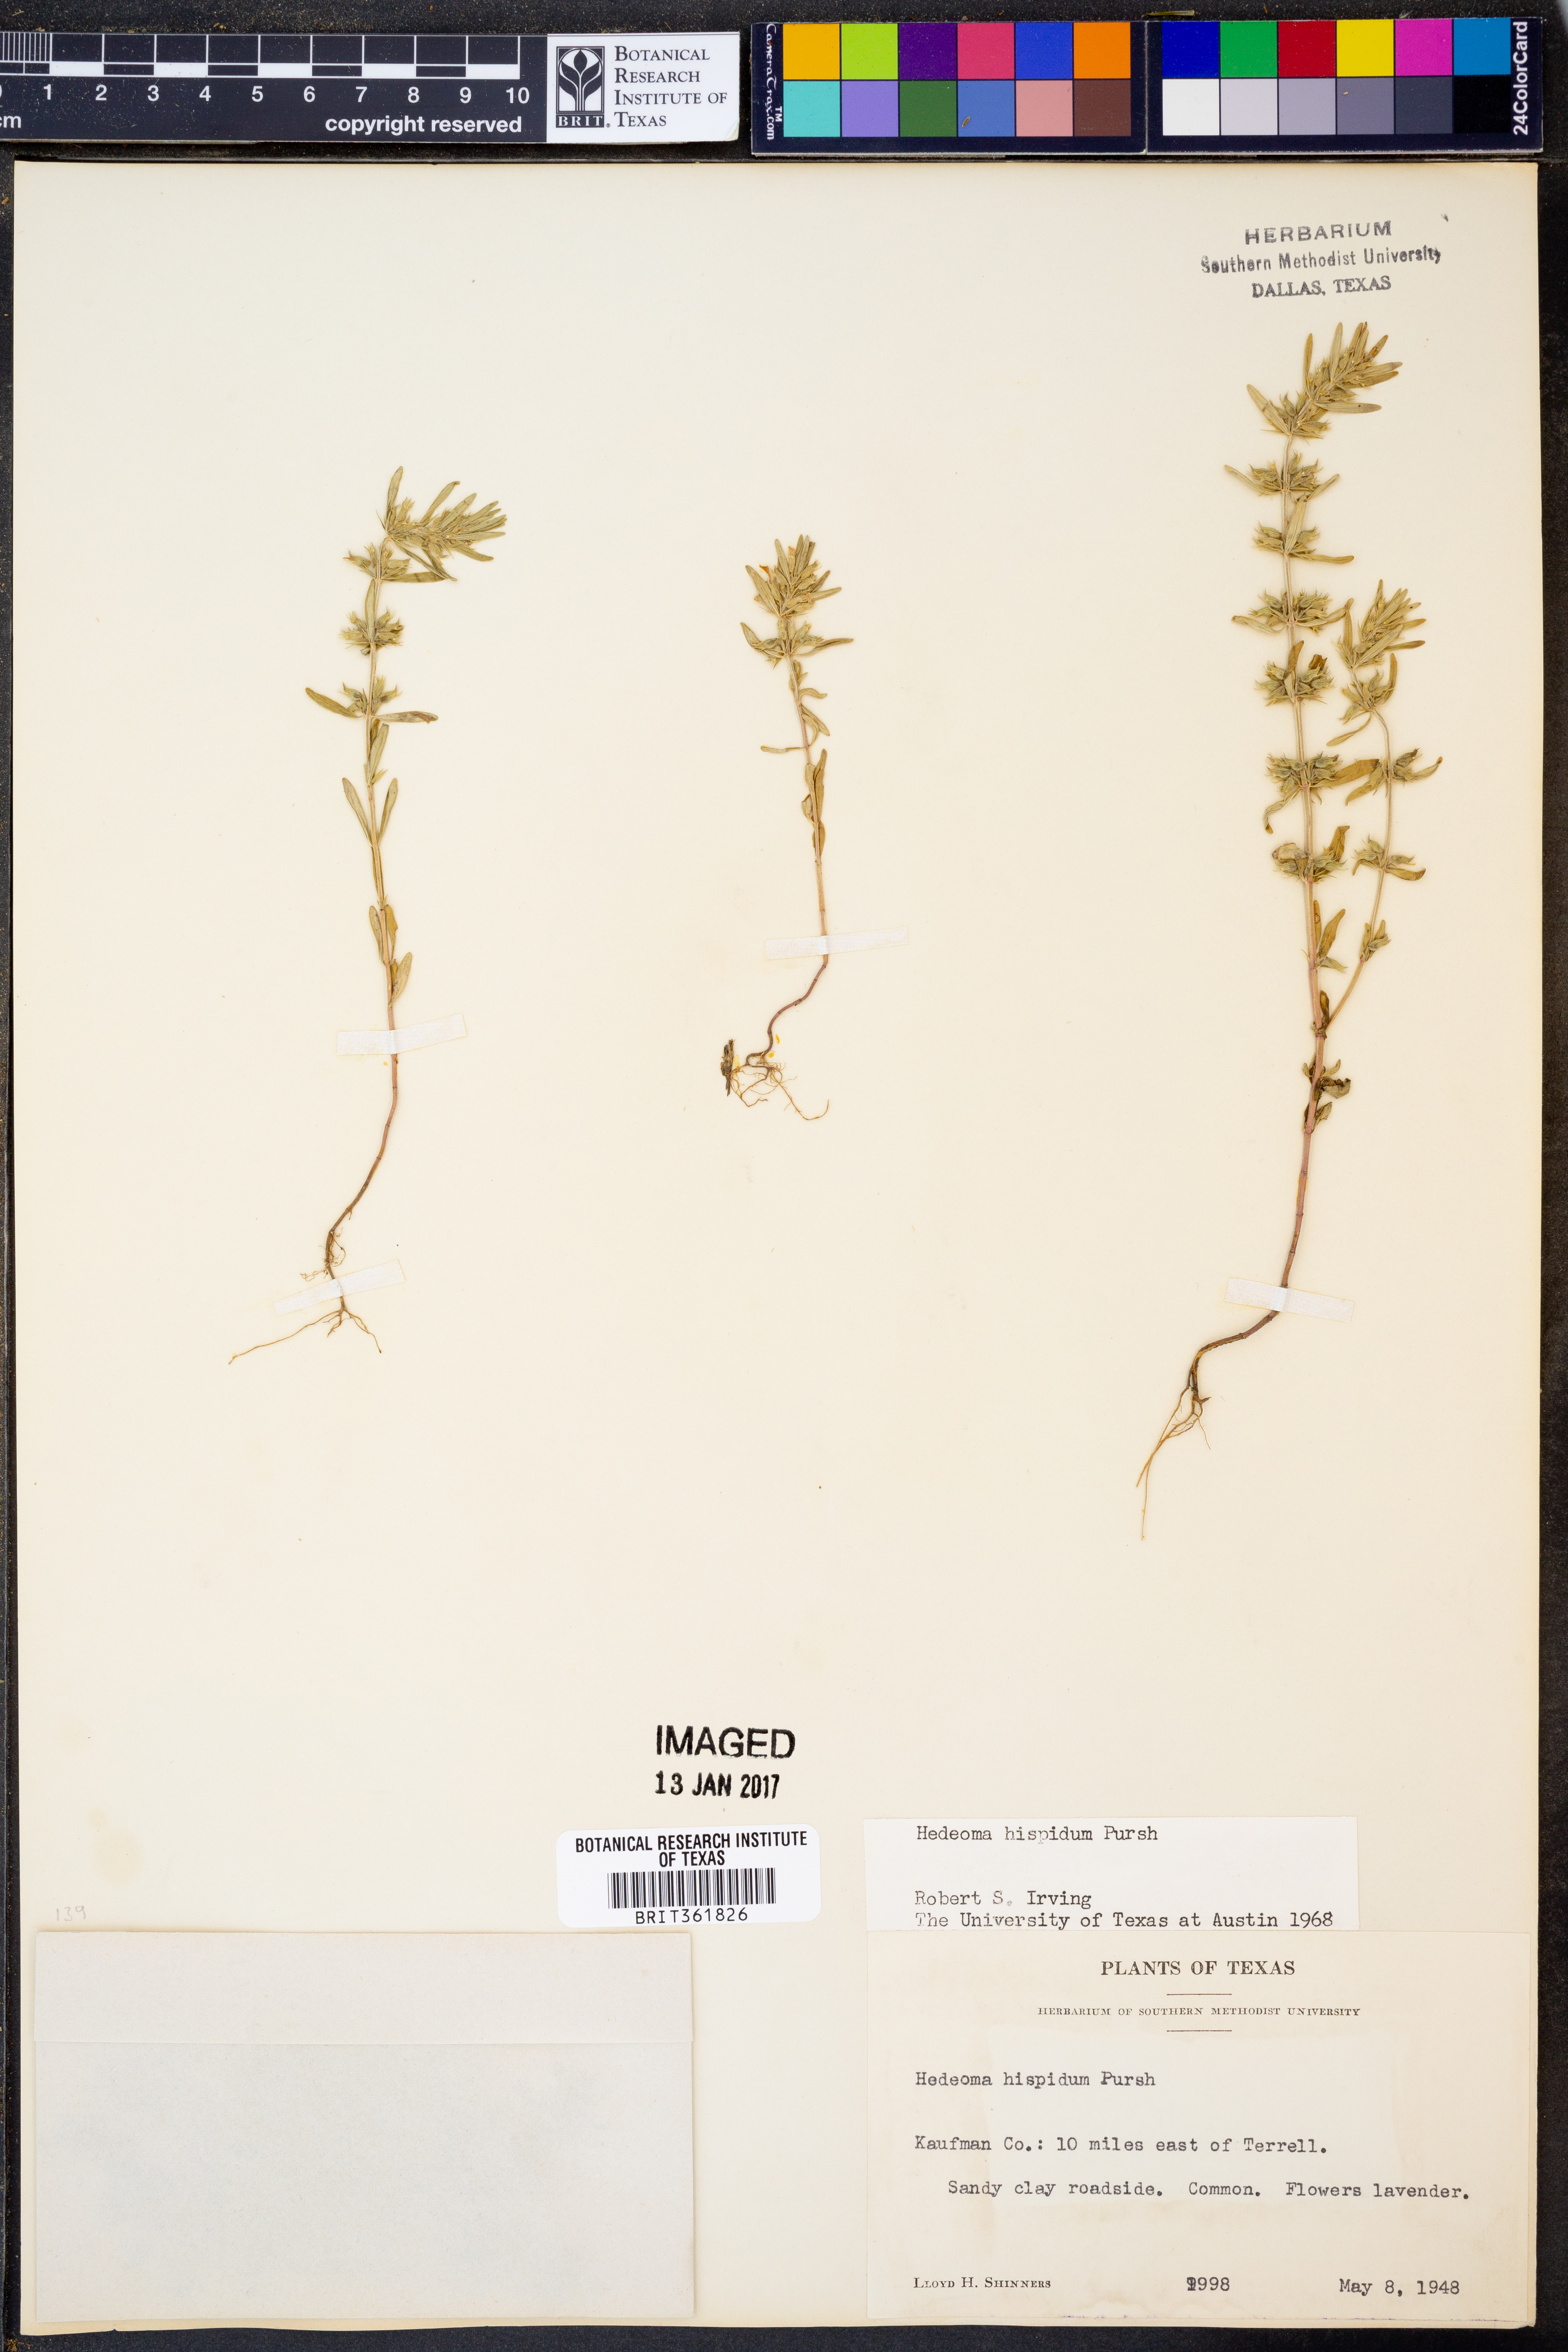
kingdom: Plantae
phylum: Tracheophyta
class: Magnoliopsida
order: Lamiales
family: Lamiaceae
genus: Hedeoma
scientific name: Hedeoma hispida
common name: Mock pennyroyal
